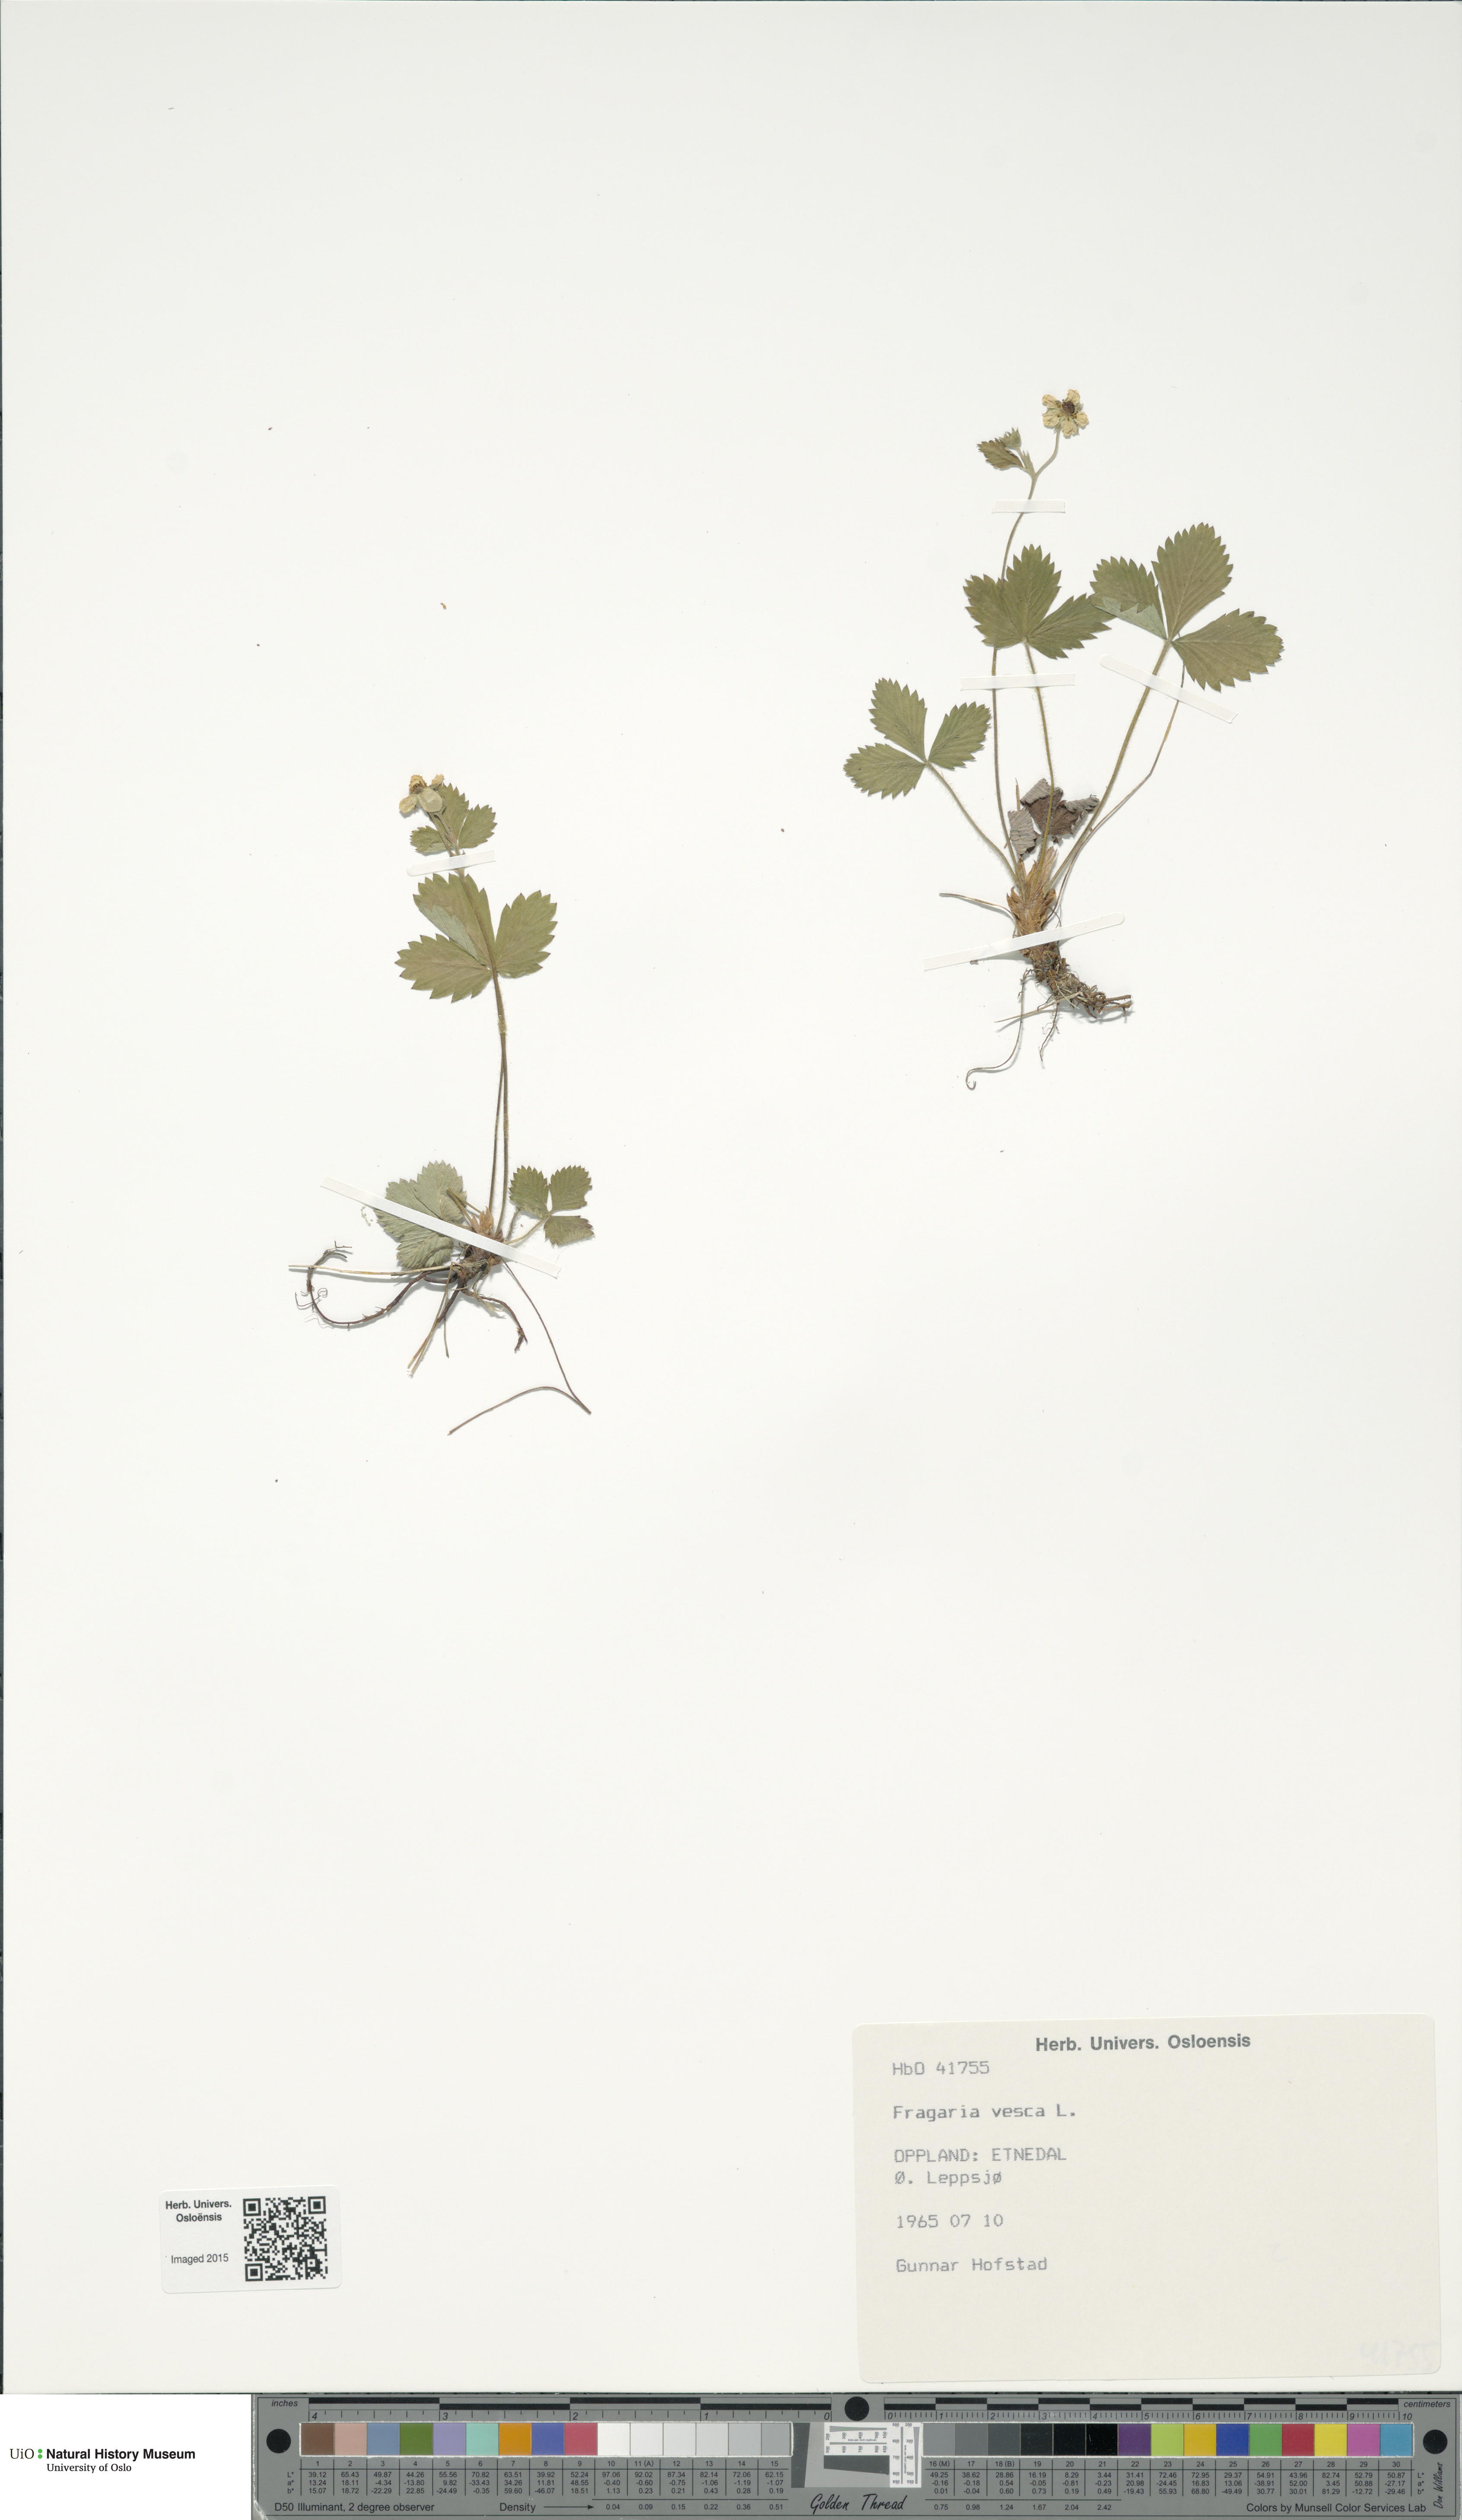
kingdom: Plantae
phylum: Tracheophyta
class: Magnoliopsida
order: Rosales
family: Rosaceae
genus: Fragaria
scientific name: Fragaria vesca
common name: Wild strawberry
